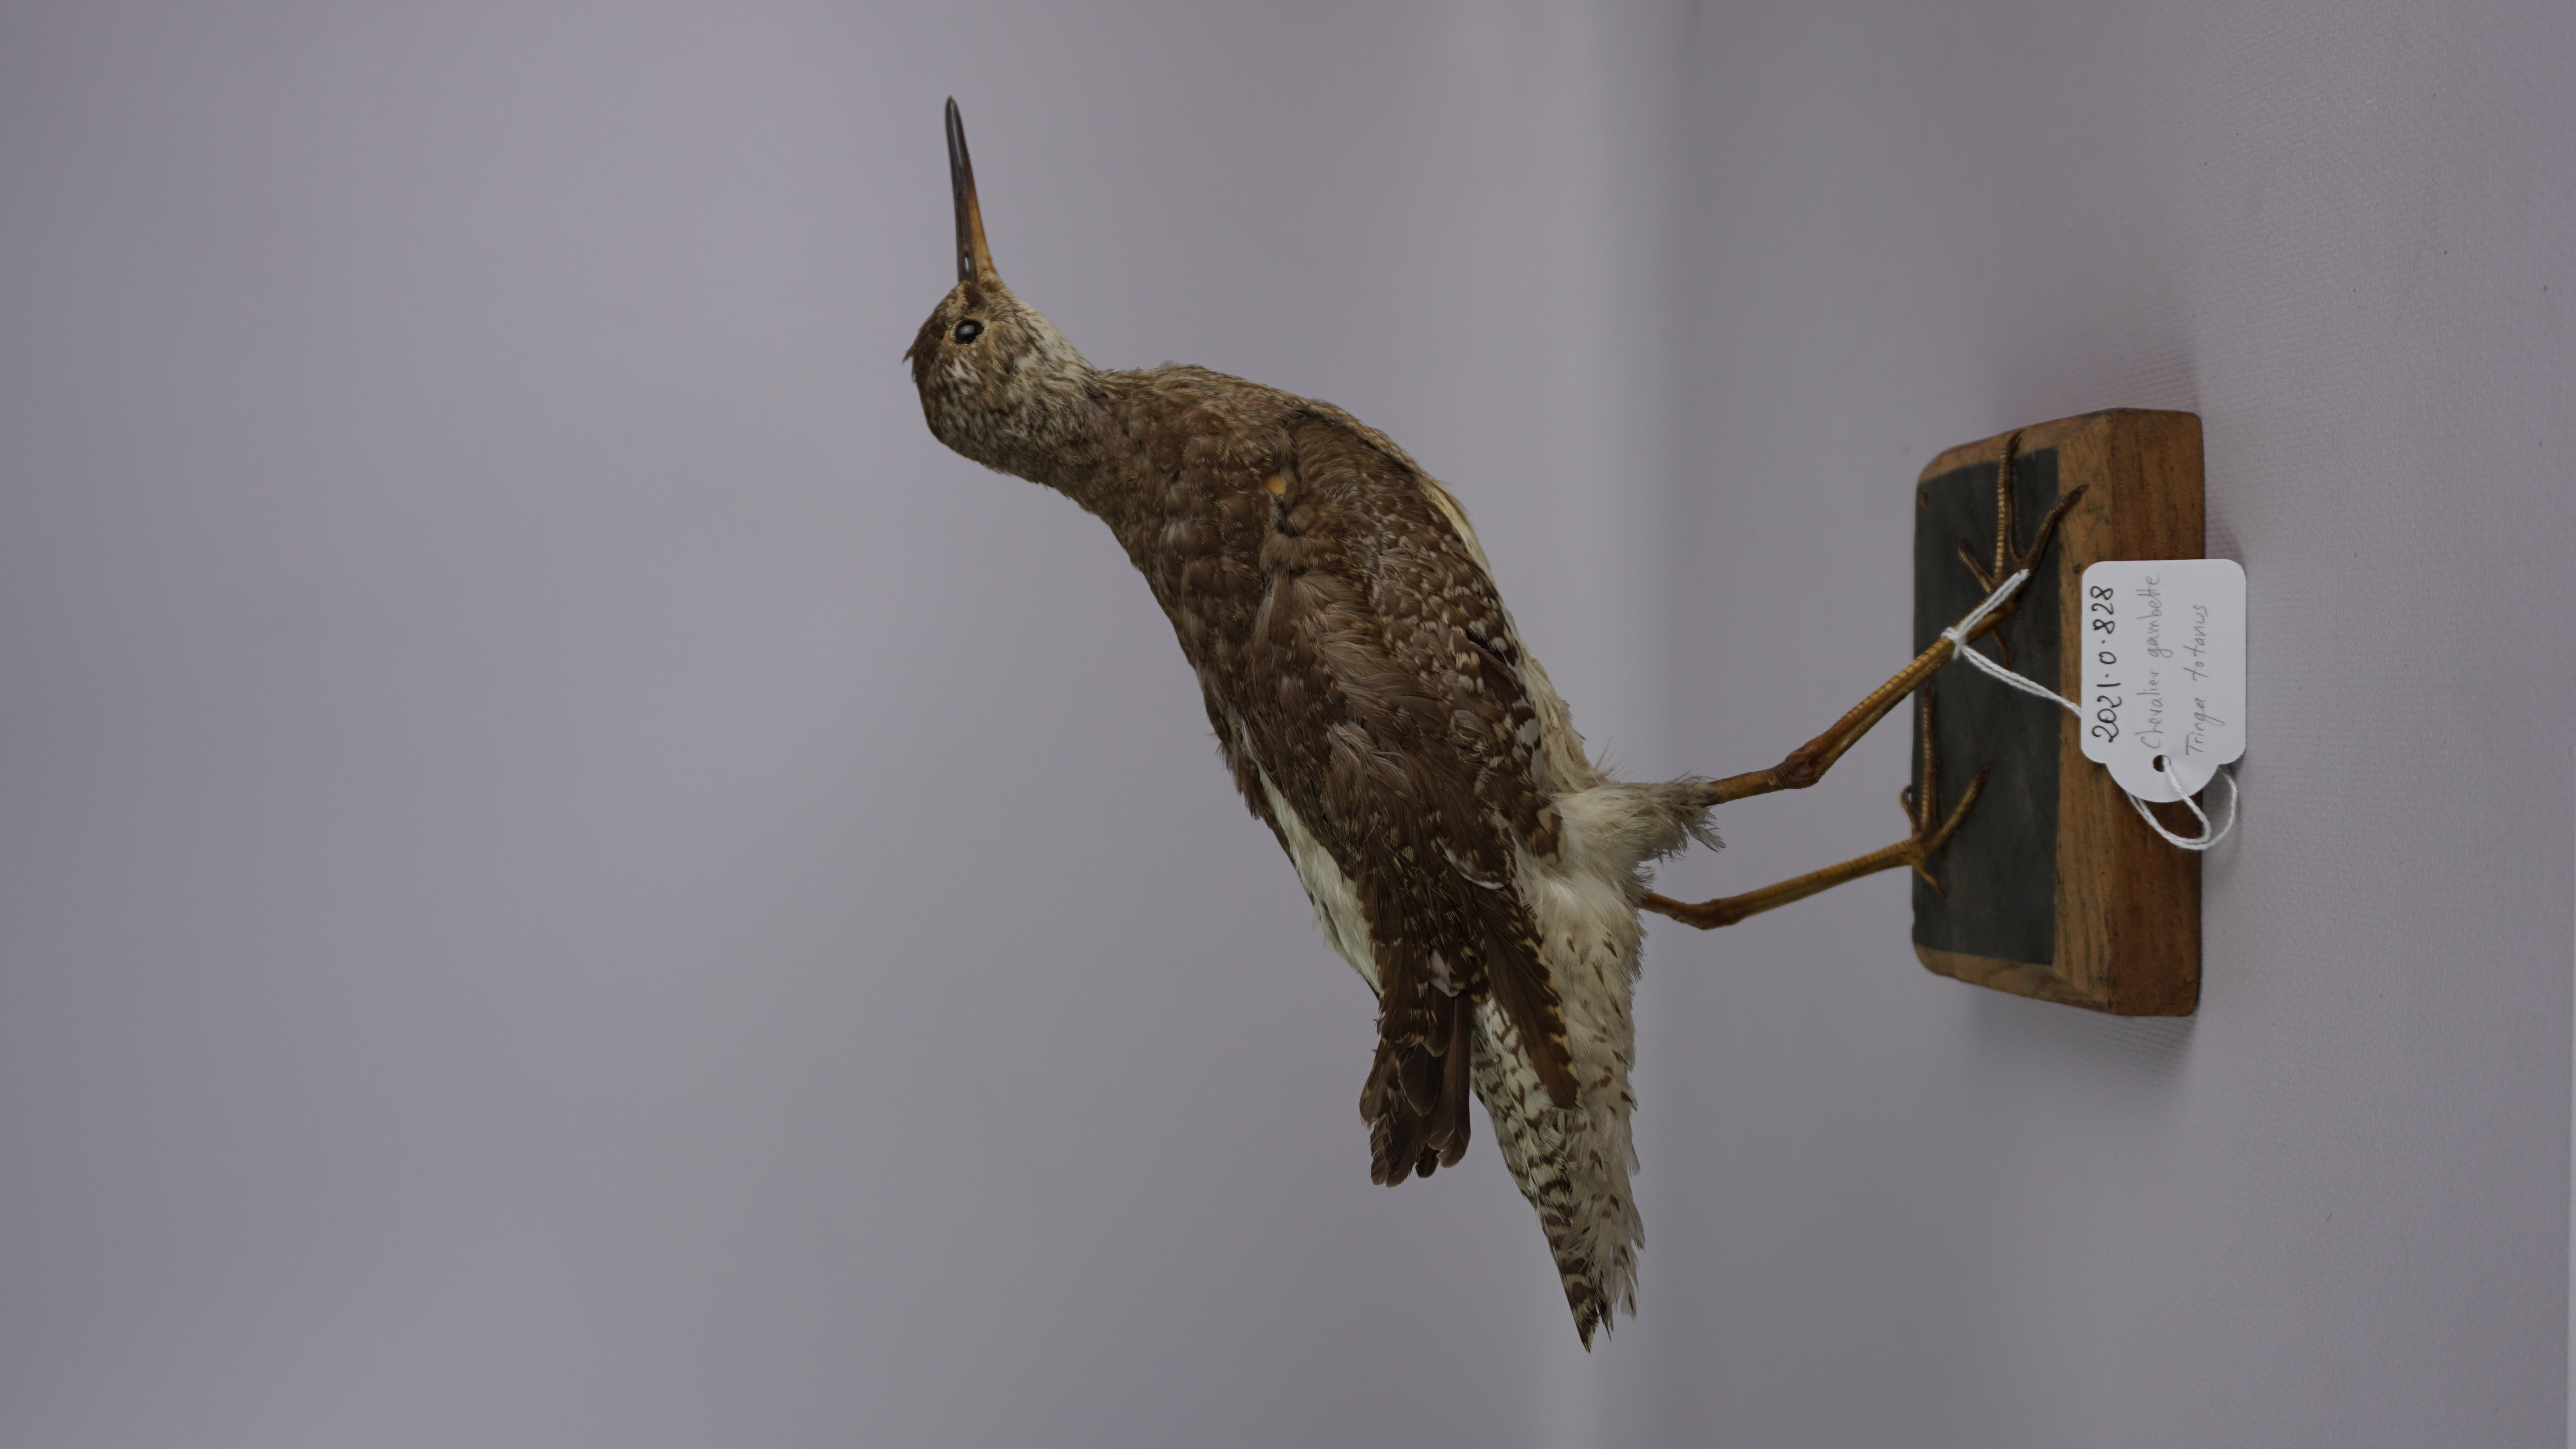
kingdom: Animalia
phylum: Chordata
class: Aves
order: Charadriiformes
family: Scolopacidae
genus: Tringa
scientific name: Tringa totanus
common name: Common redshank
